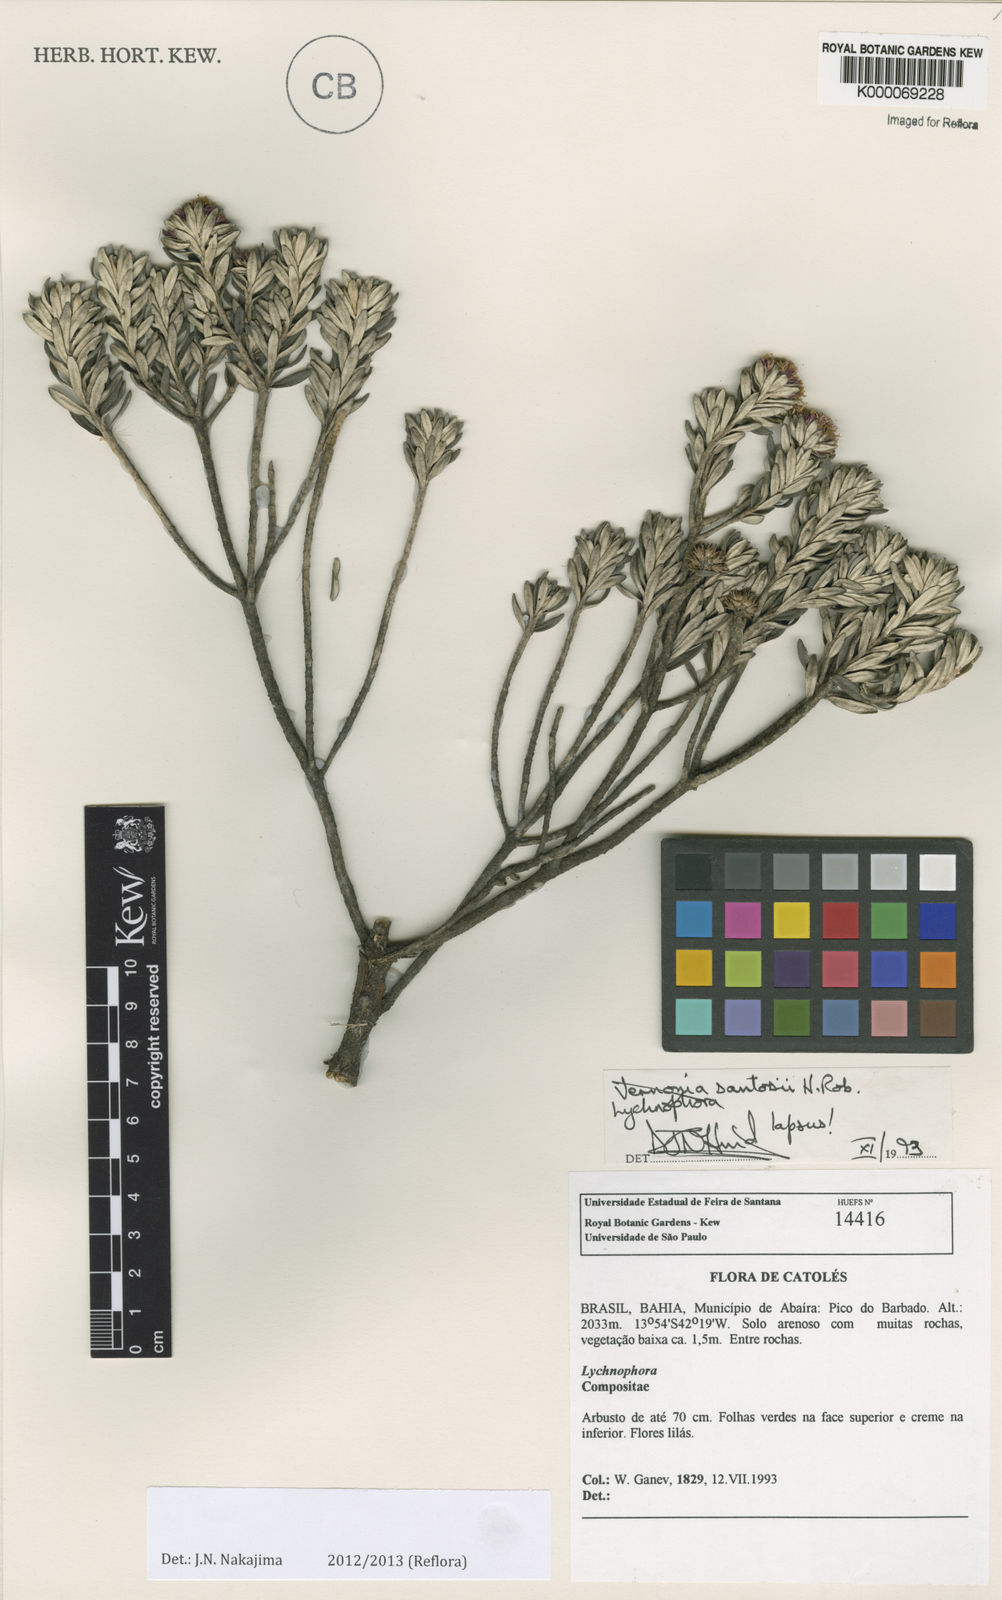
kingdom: Plantae
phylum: Tracheophyta
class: Magnoliopsida
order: Asterales
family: Asteraceae
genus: Lychnophorella
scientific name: Lychnophorella santosii
